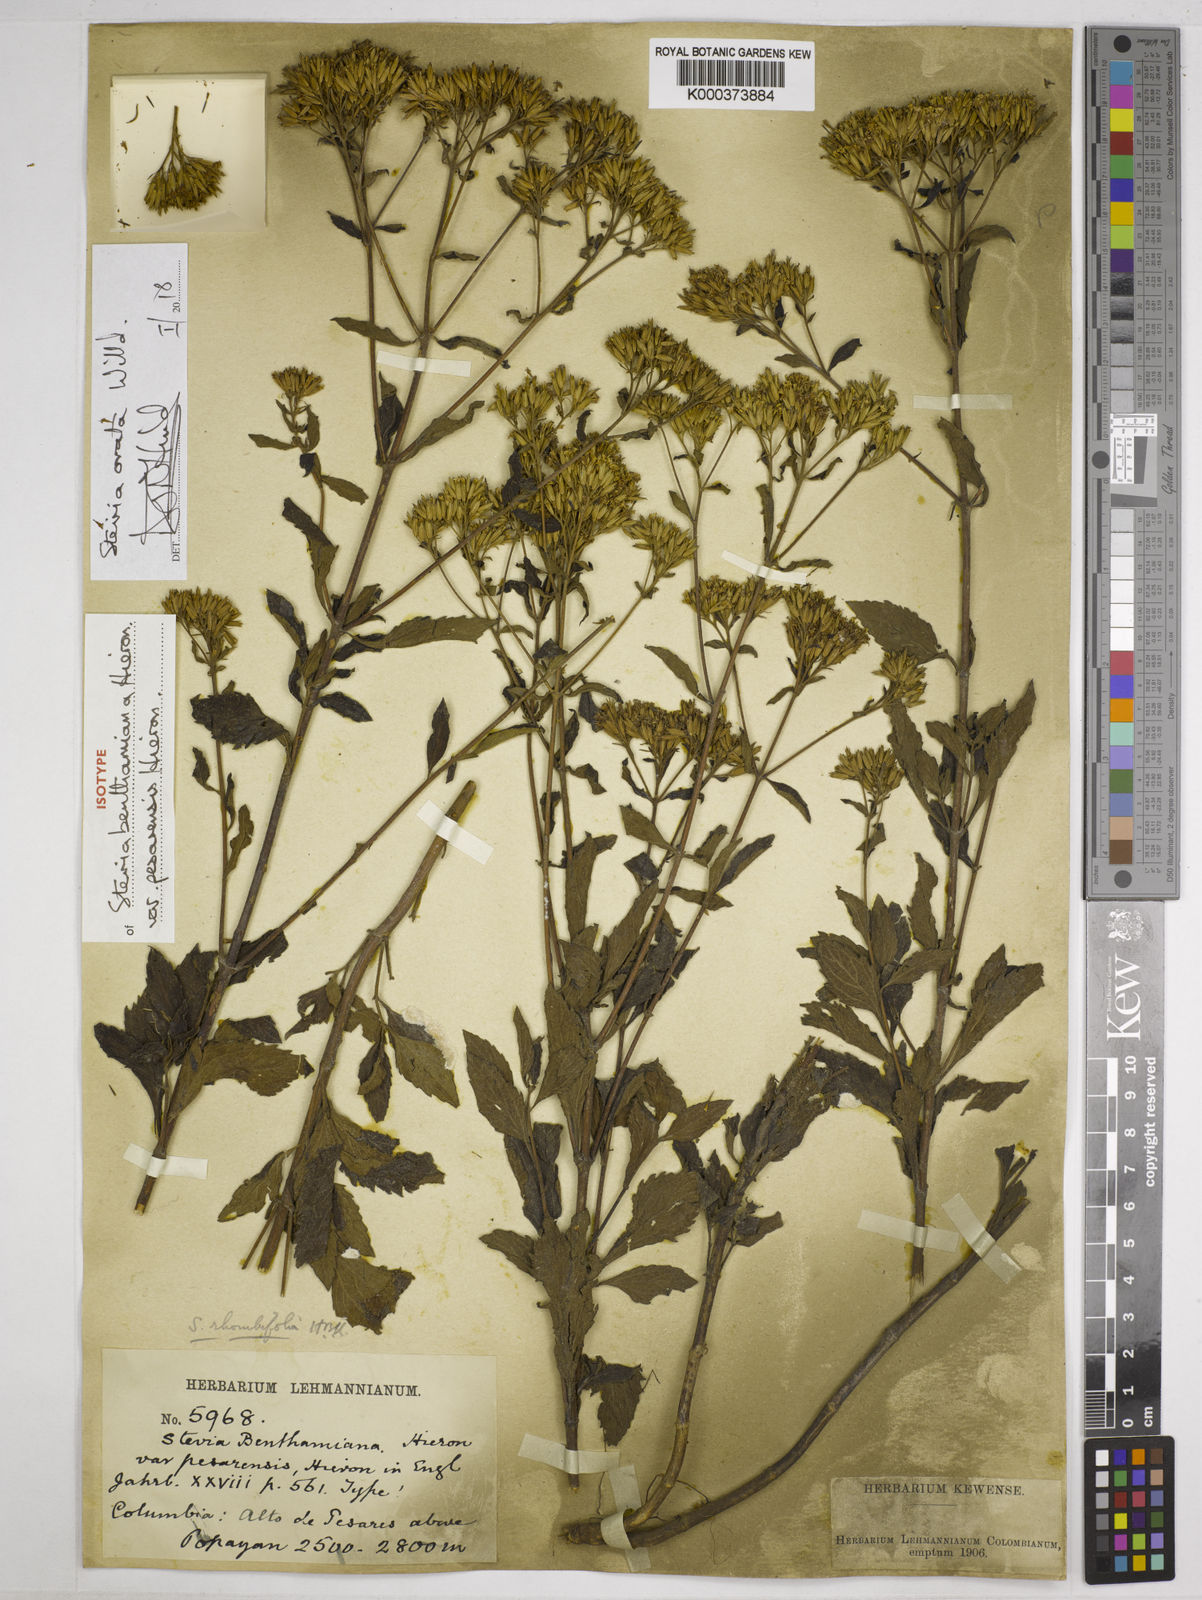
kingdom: Plantae
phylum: Tracheophyta
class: Magnoliopsida
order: Asterales
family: Asteraceae
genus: Stevia
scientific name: Stevia ovata
